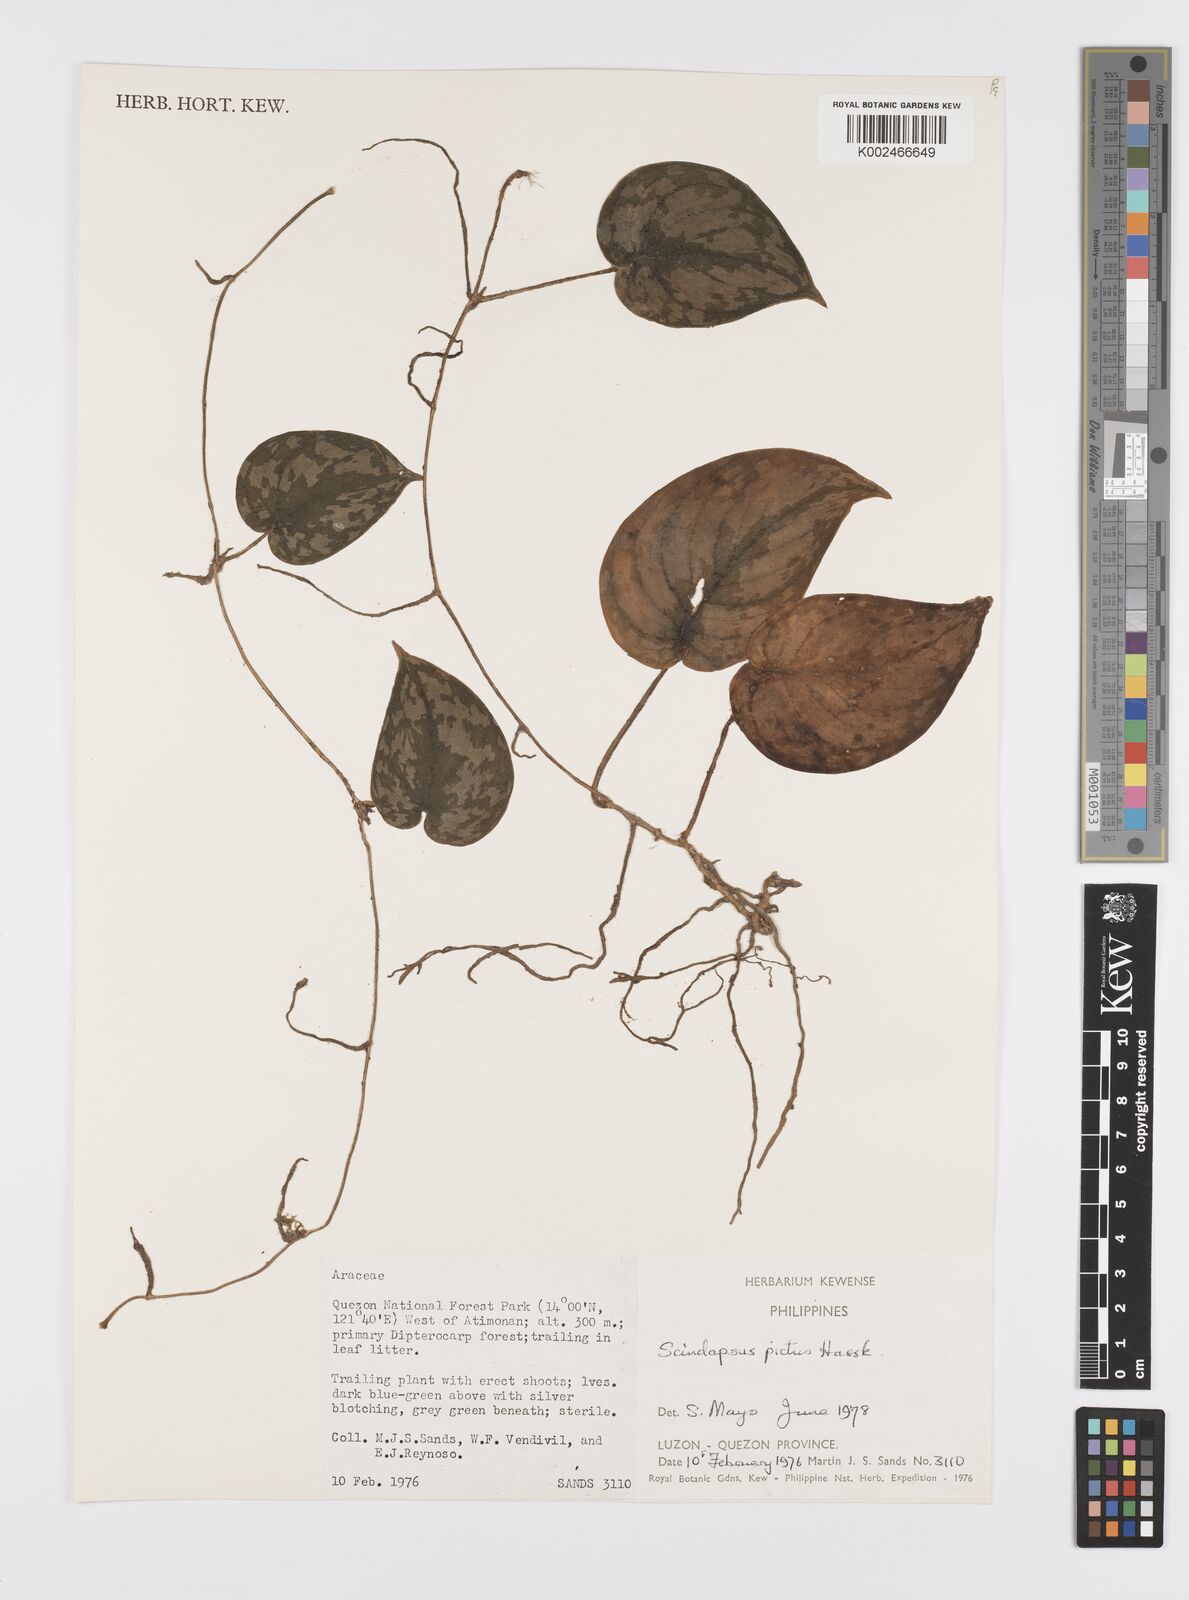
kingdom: Plantae
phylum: Tracheophyta
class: Liliopsida
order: Alismatales
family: Araceae
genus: Scindapsus
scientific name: Scindapsus pictus
